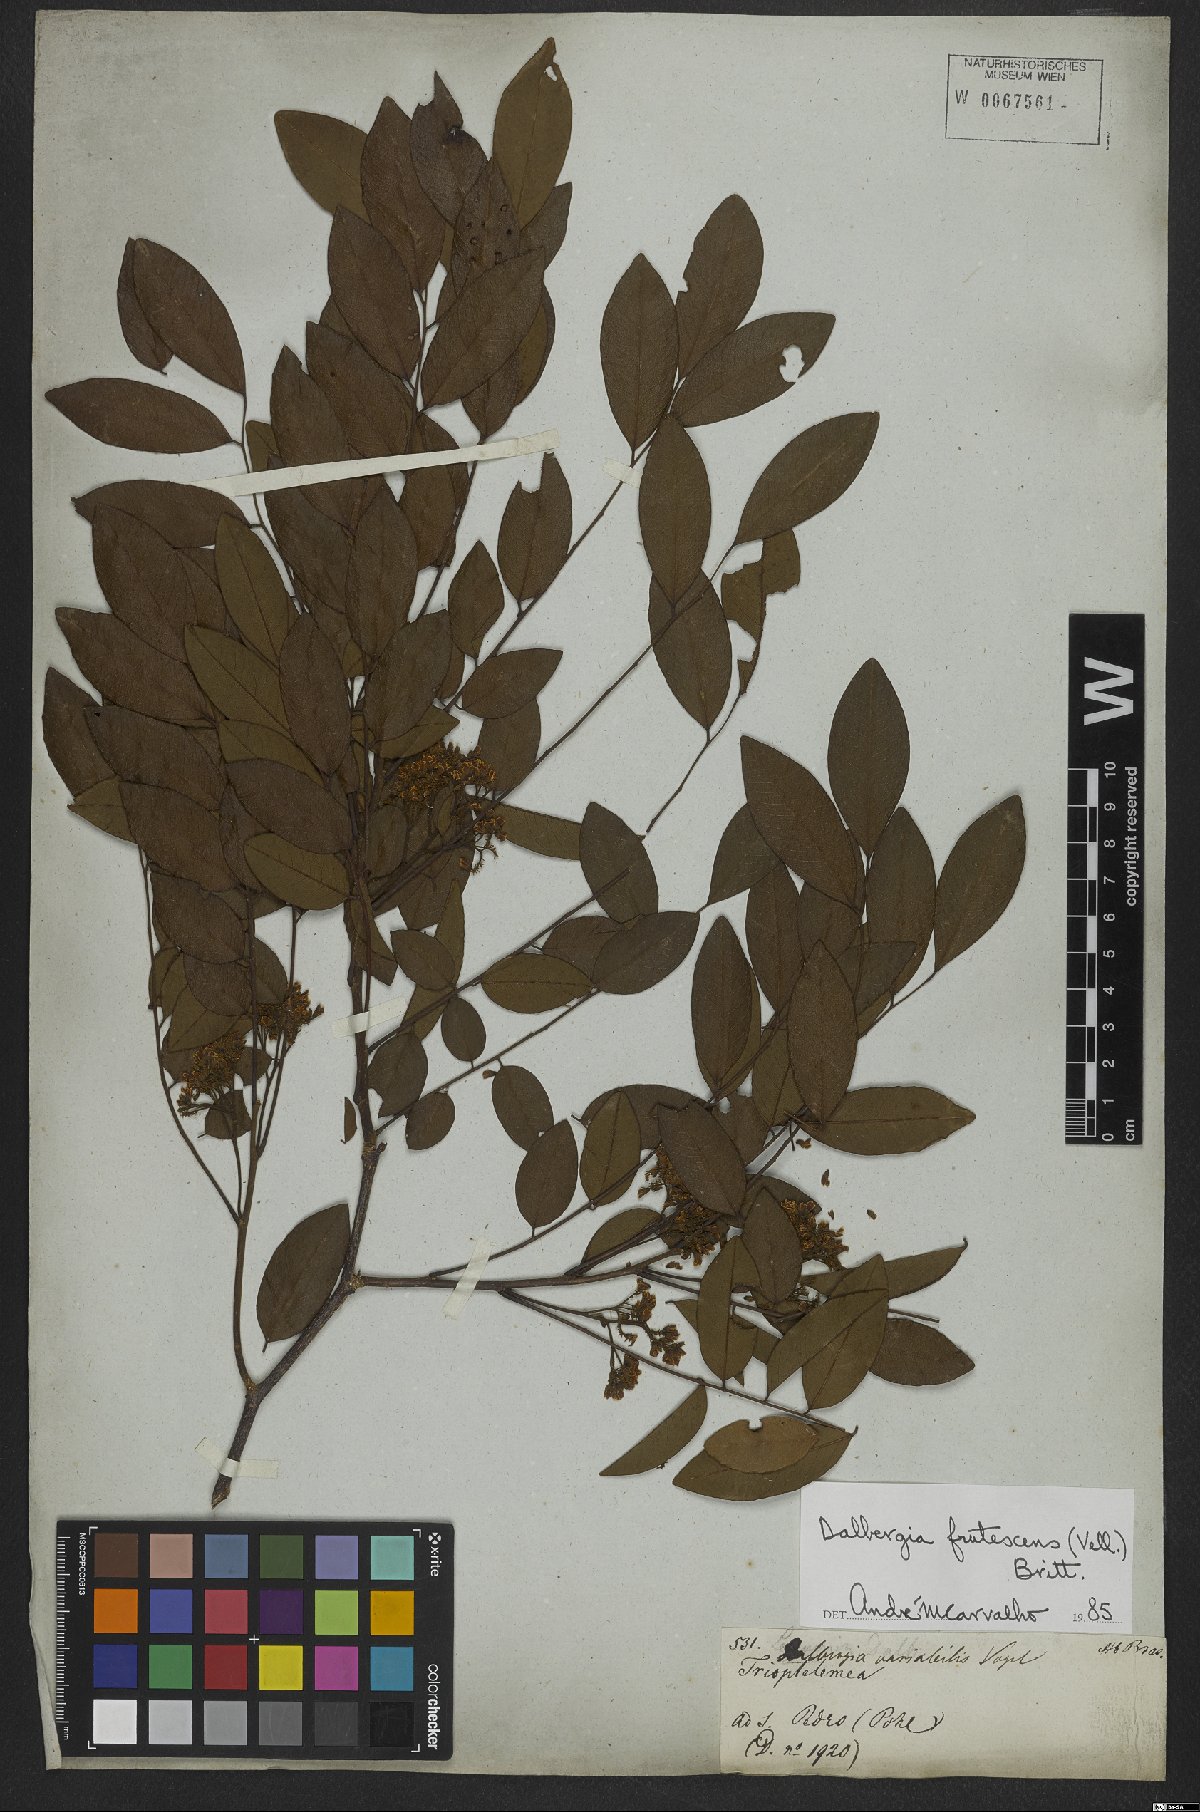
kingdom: Plantae
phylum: Tracheophyta
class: Magnoliopsida
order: Fabales
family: Fabaceae
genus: Dalbergia
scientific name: Dalbergia frutescens
